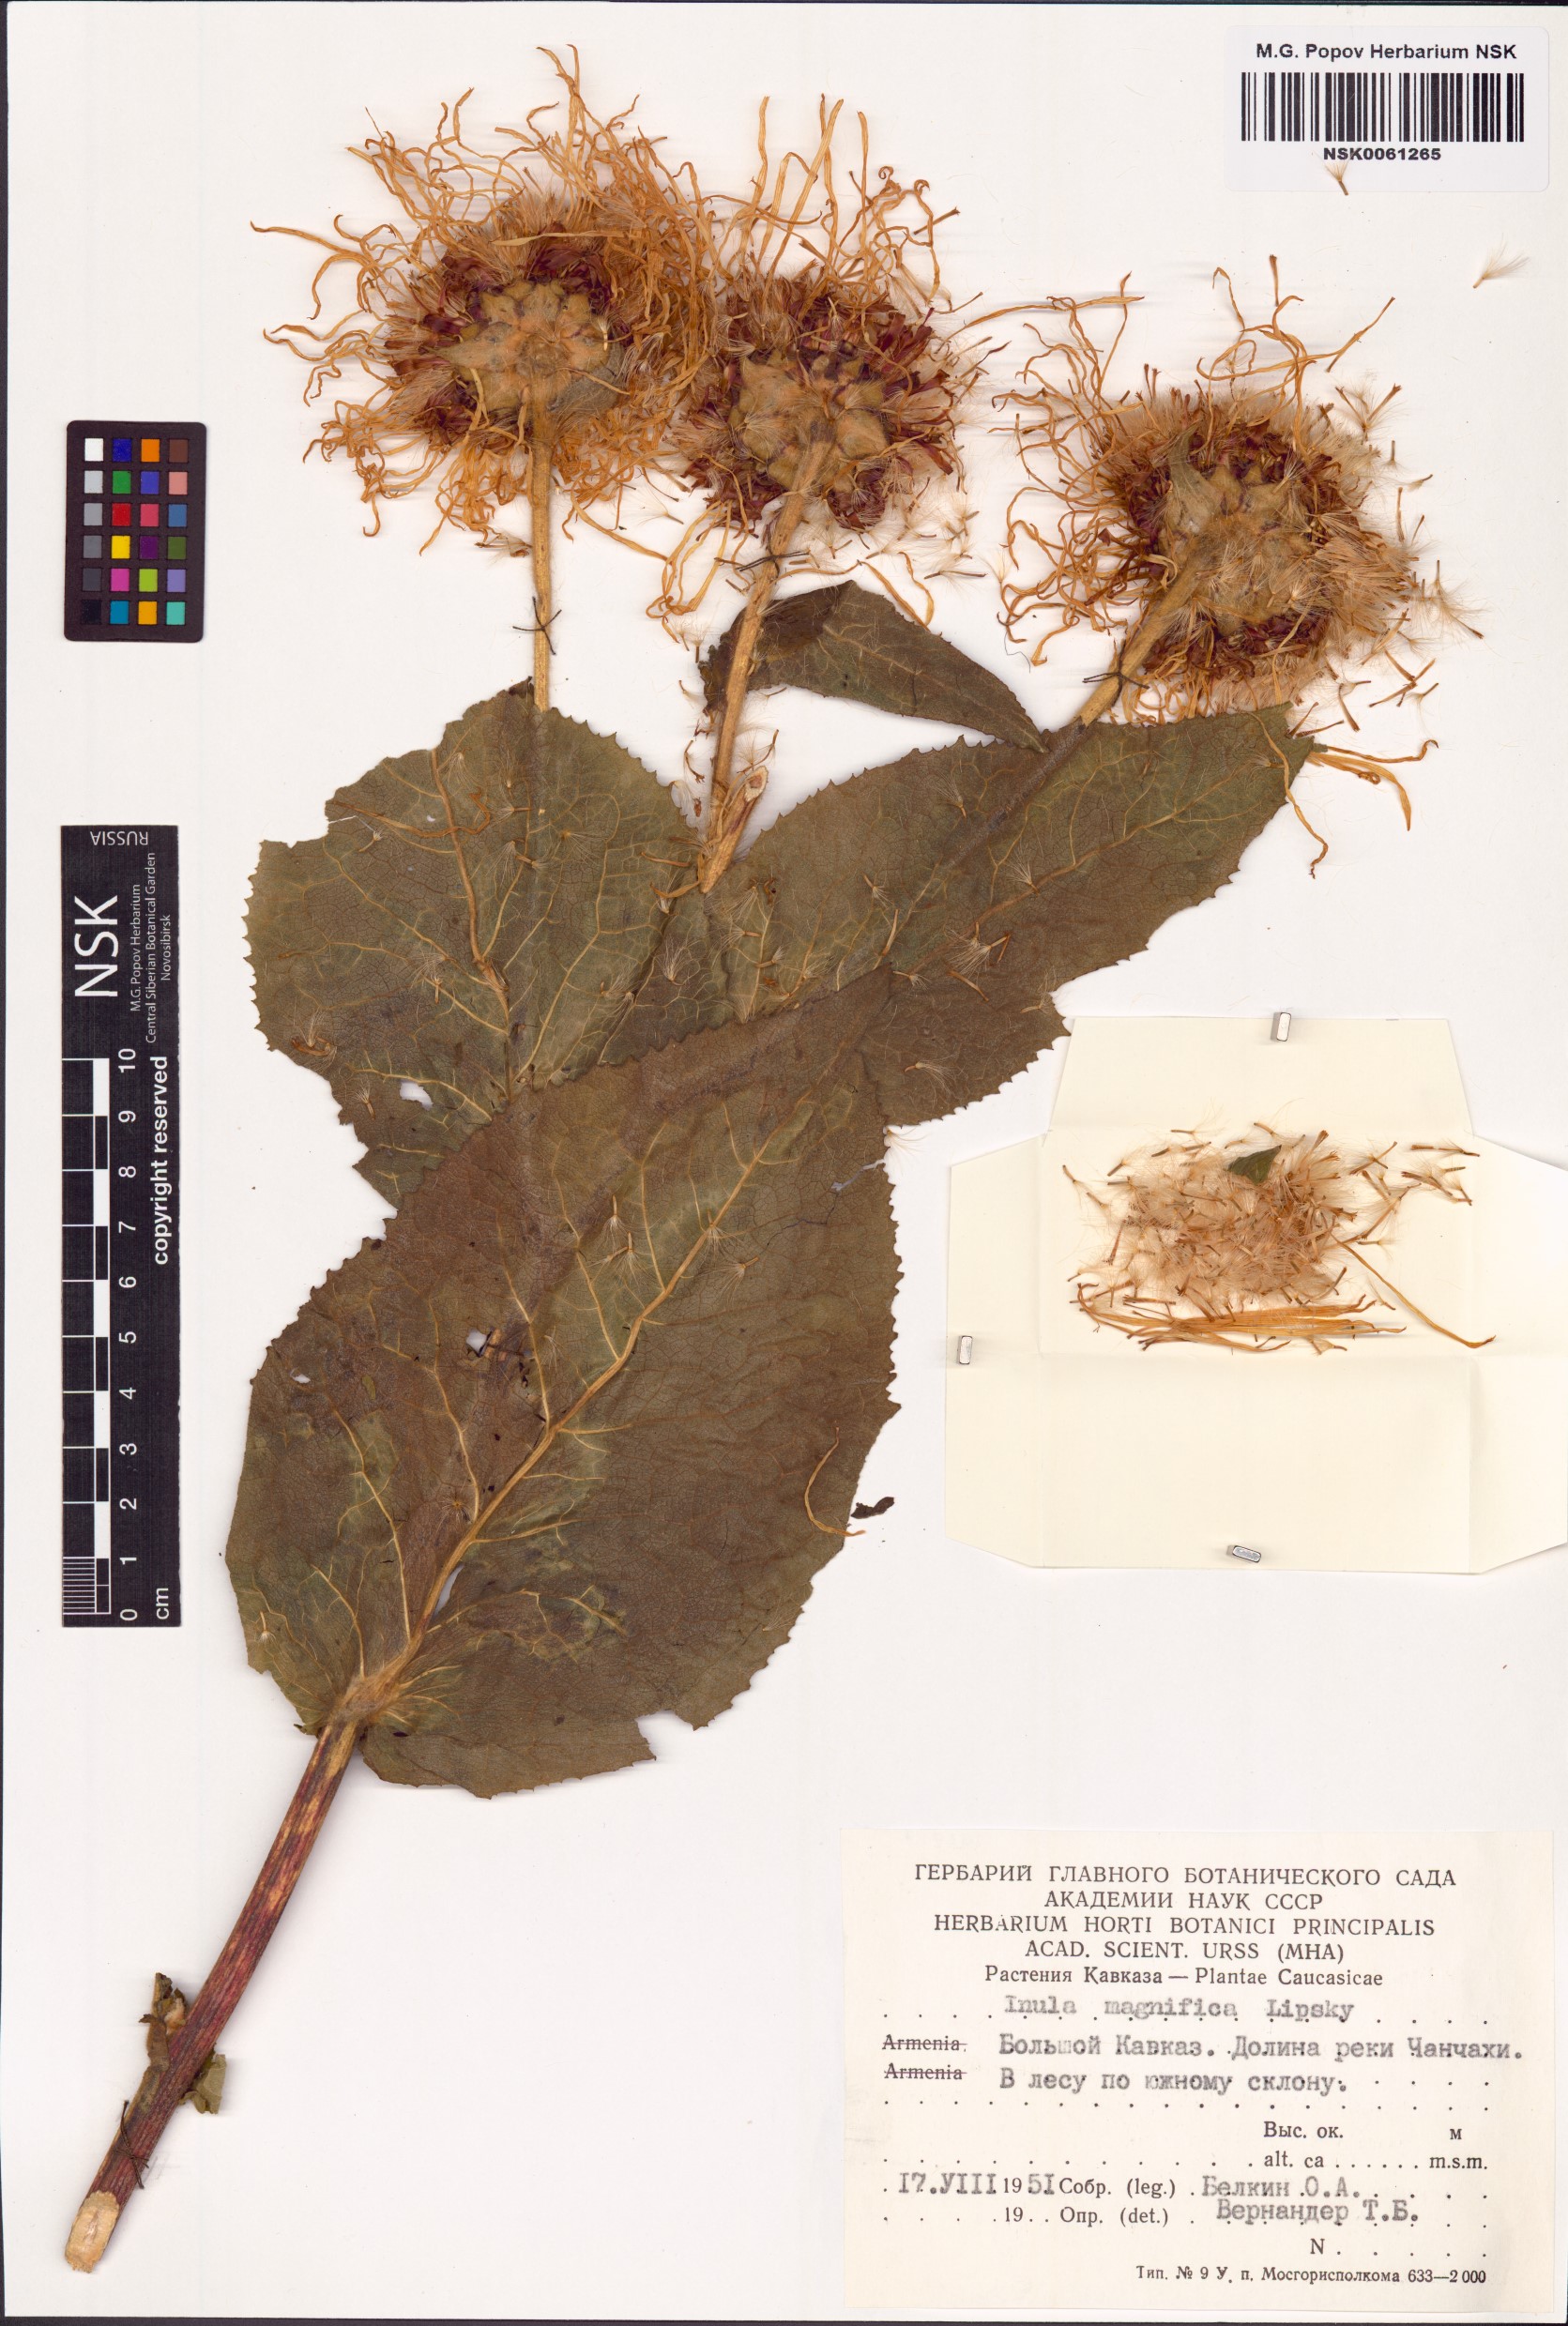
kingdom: Plantae
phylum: Tracheophyta
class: Magnoliopsida
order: Asterales
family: Asteraceae
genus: Inula
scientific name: Inula magnifica
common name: Giant fleabane
